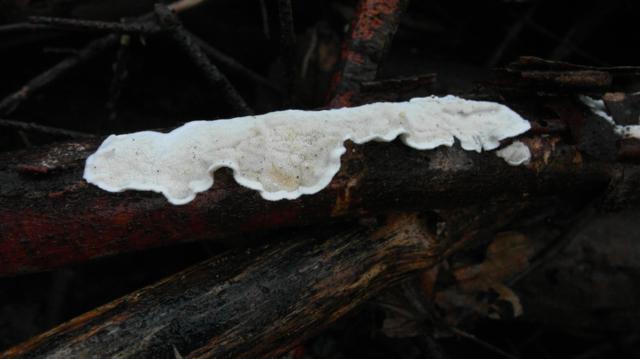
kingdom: Fungi
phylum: Basidiomycota
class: Agaricomycetes
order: Polyporales
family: Irpicaceae
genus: Byssomerulius
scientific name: Byssomerulius corium
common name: læder-åresvamp
